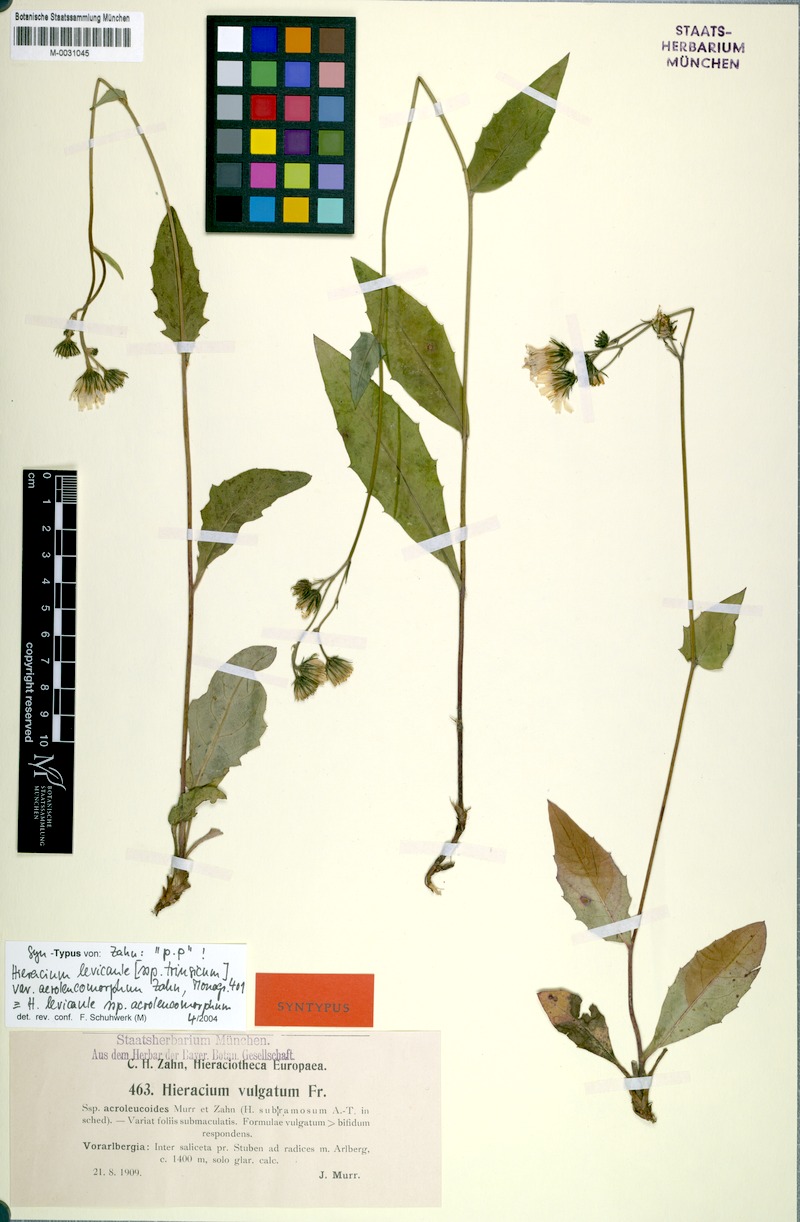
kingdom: Plantae
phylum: Tracheophyta
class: Magnoliopsida
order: Asterales
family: Asteraceae
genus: Hieracium
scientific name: Hieracium levicaule
